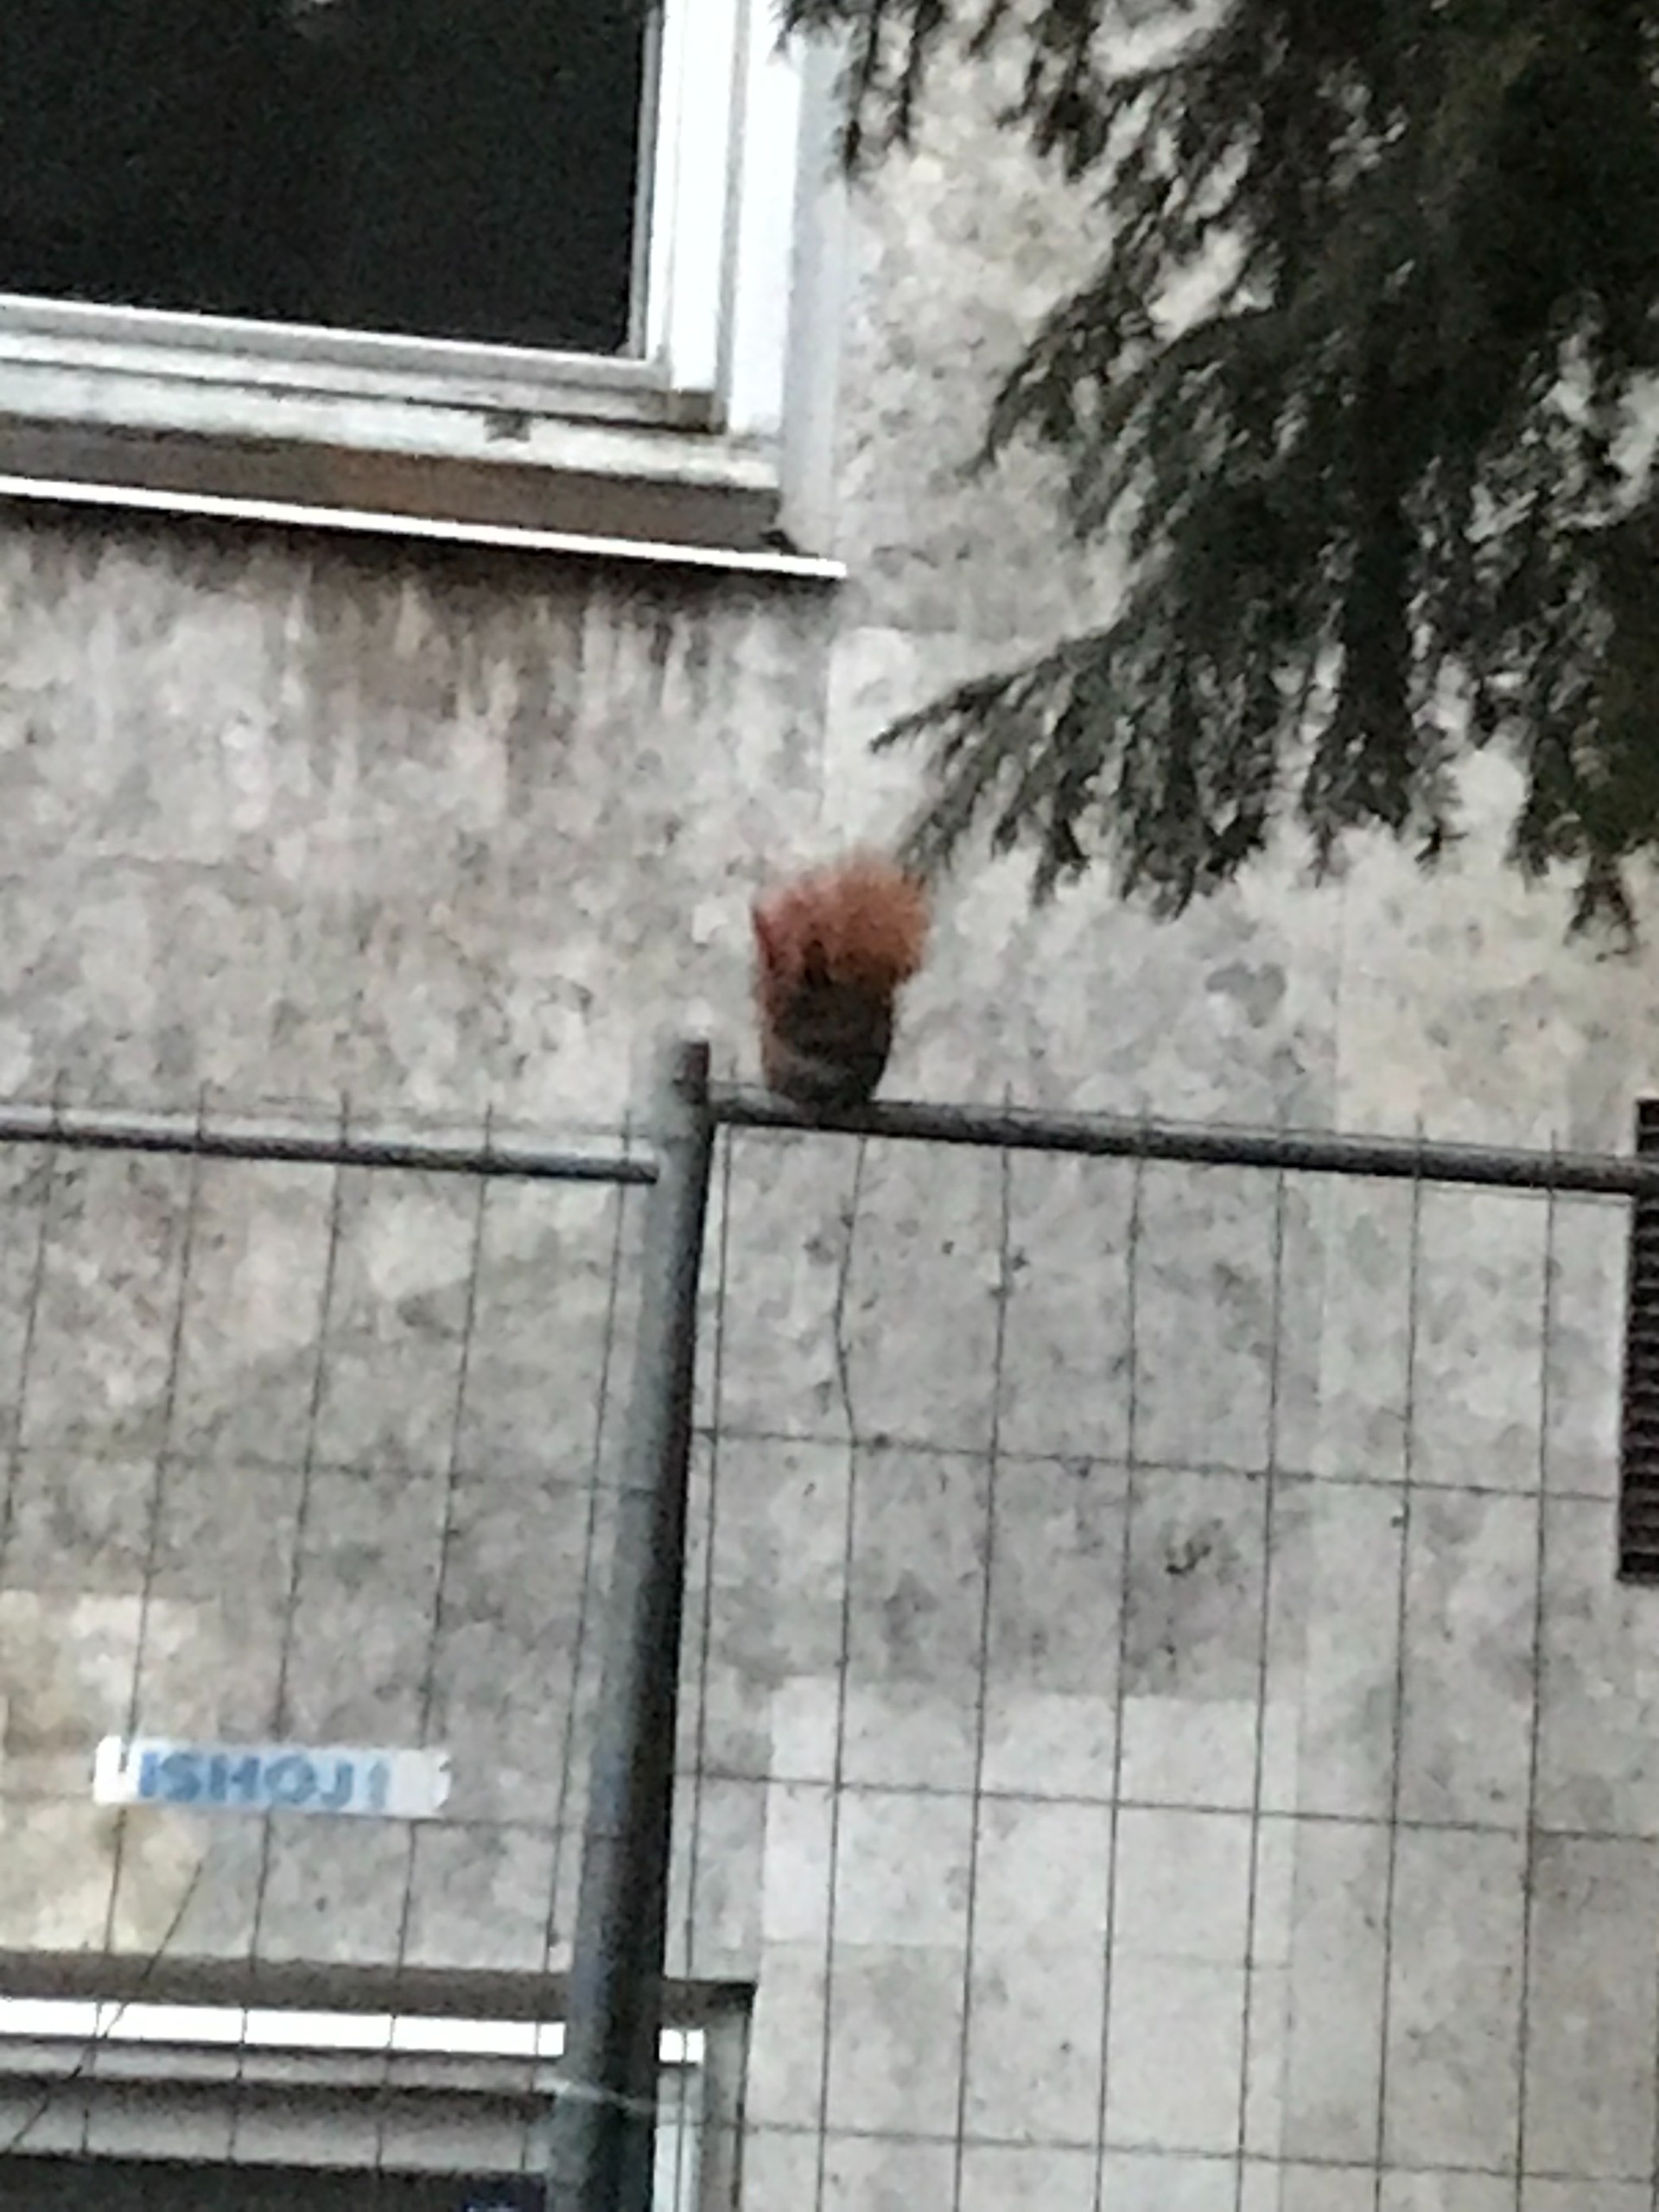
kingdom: Animalia
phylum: Chordata
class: Mammalia
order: Rodentia
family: Sciuridae
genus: Sciurus
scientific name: Sciurus vulgaris
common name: Egern
